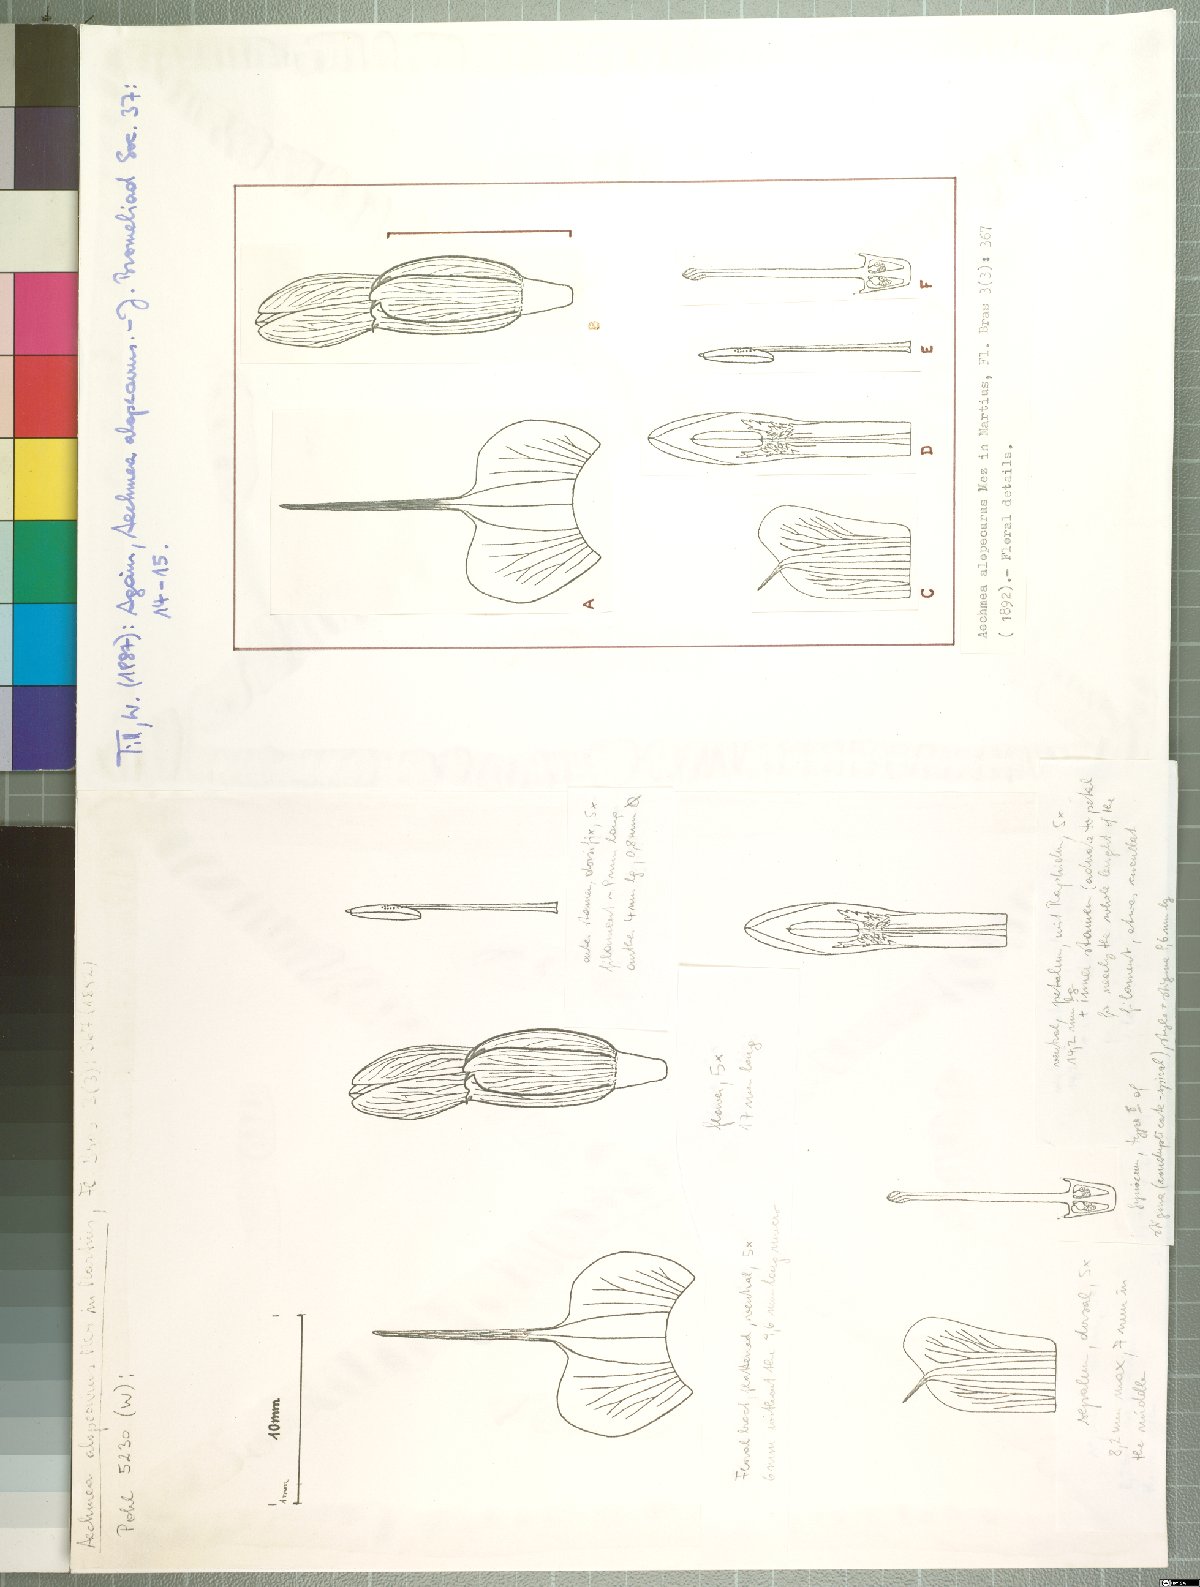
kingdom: Plantae
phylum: Tracheophyta
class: Liliopsida
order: Poales
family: Bromeliaceae
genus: Aechmea
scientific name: Aechmea alopecurus
